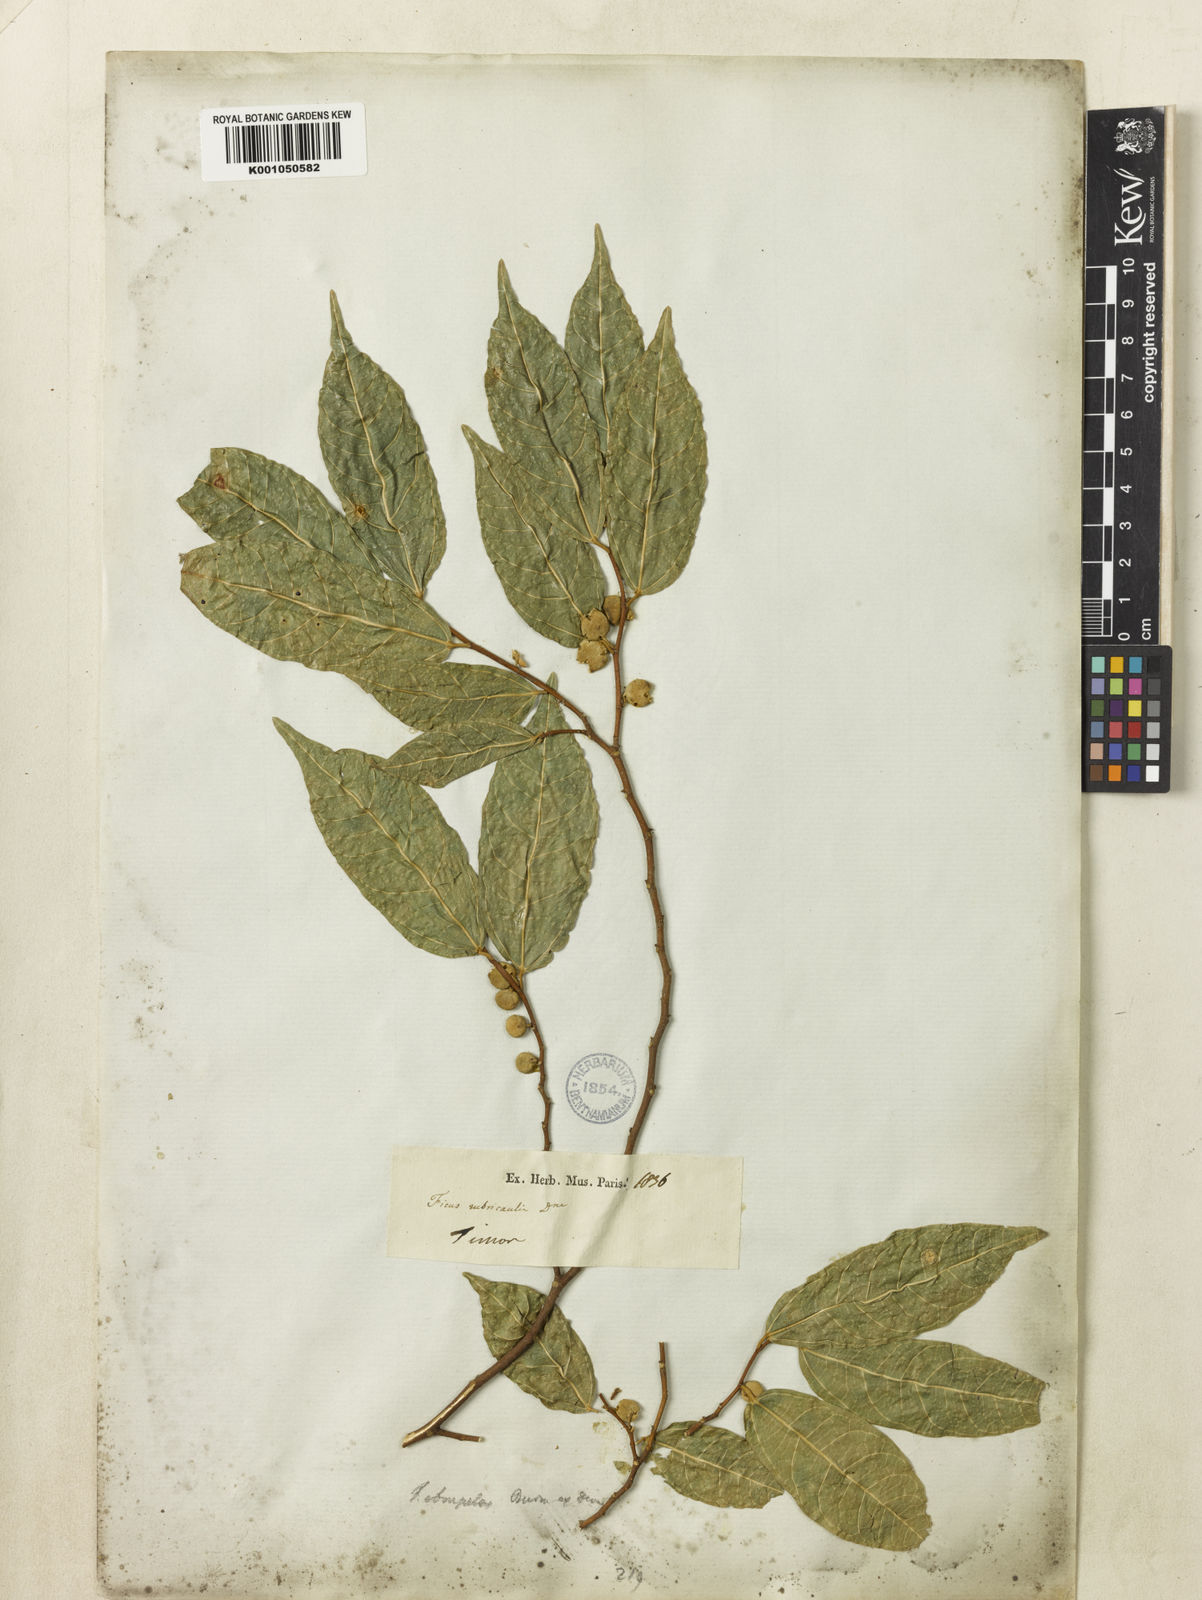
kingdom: Plantae
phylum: Tracheophyta
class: Magnoliopsida
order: Rosales
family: Moraceae
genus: Ficus
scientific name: Ficus
